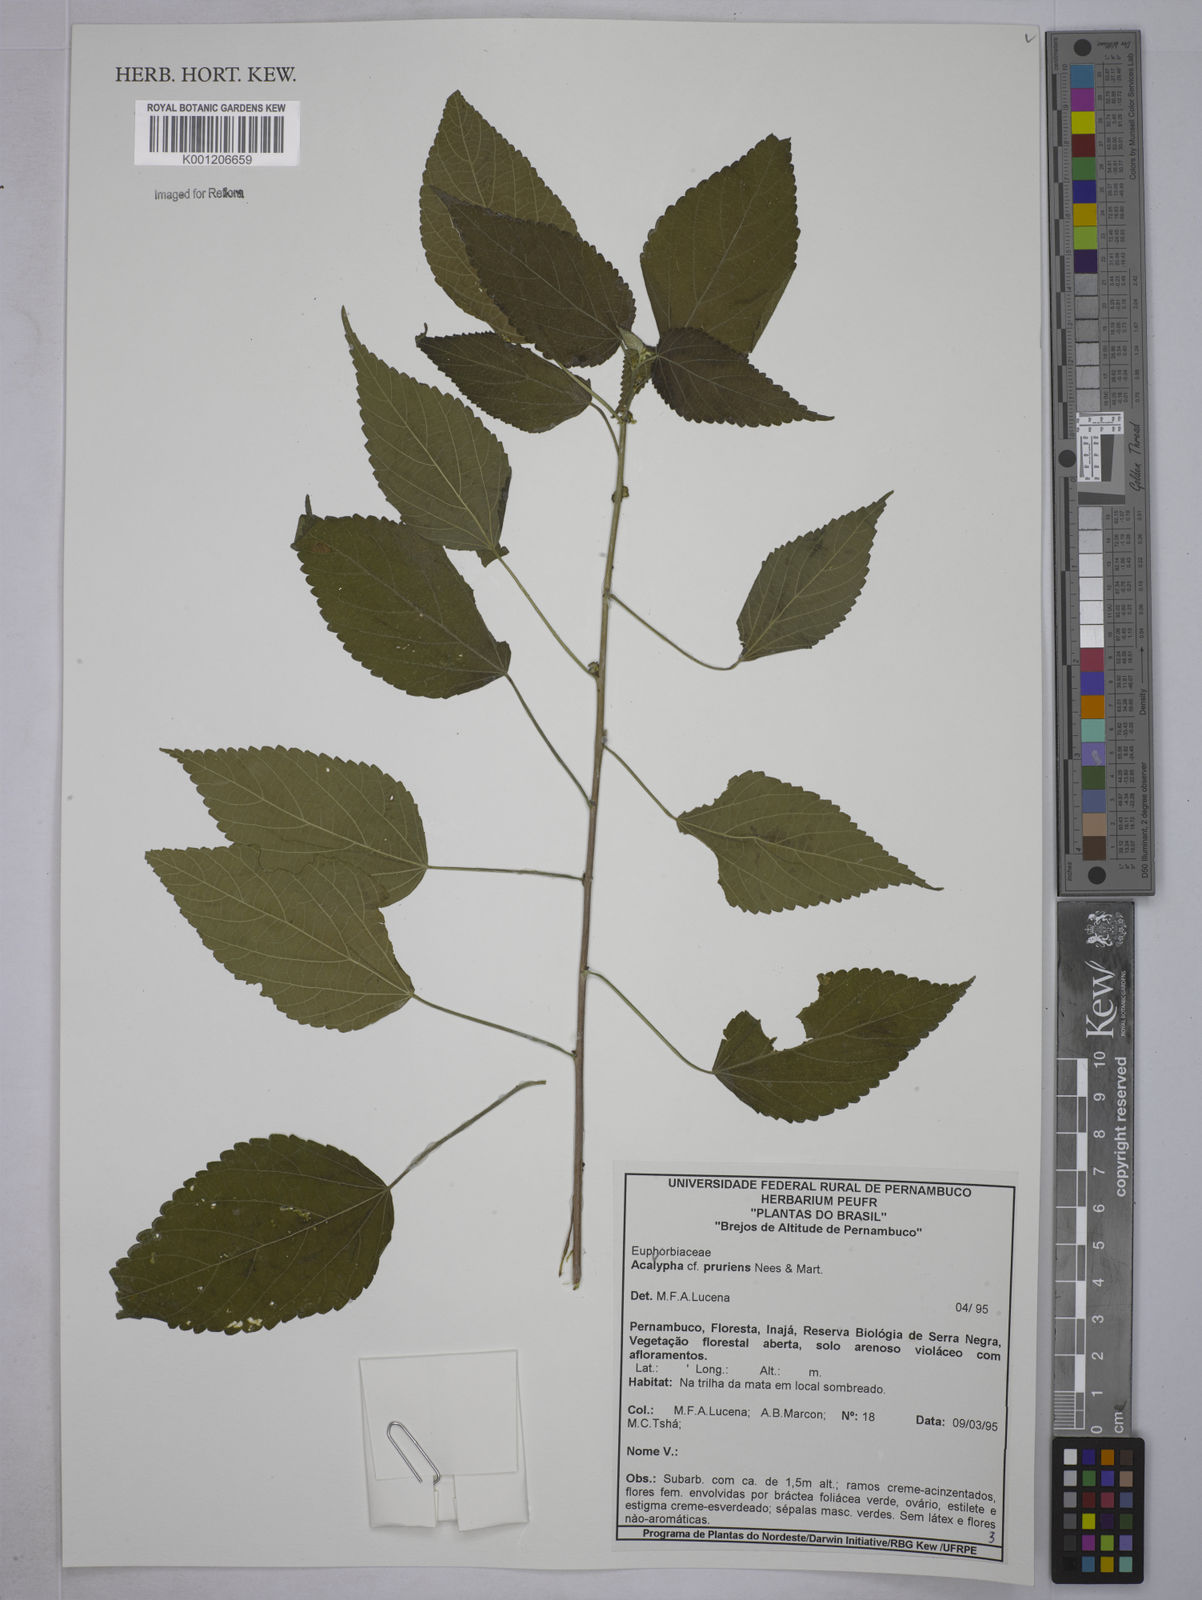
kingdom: Plantae
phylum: Tracheophyta
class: Magnoliopsida
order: Malpighiales
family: Euphorbiaceae
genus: Acalypha
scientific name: Acalypha pruriens
